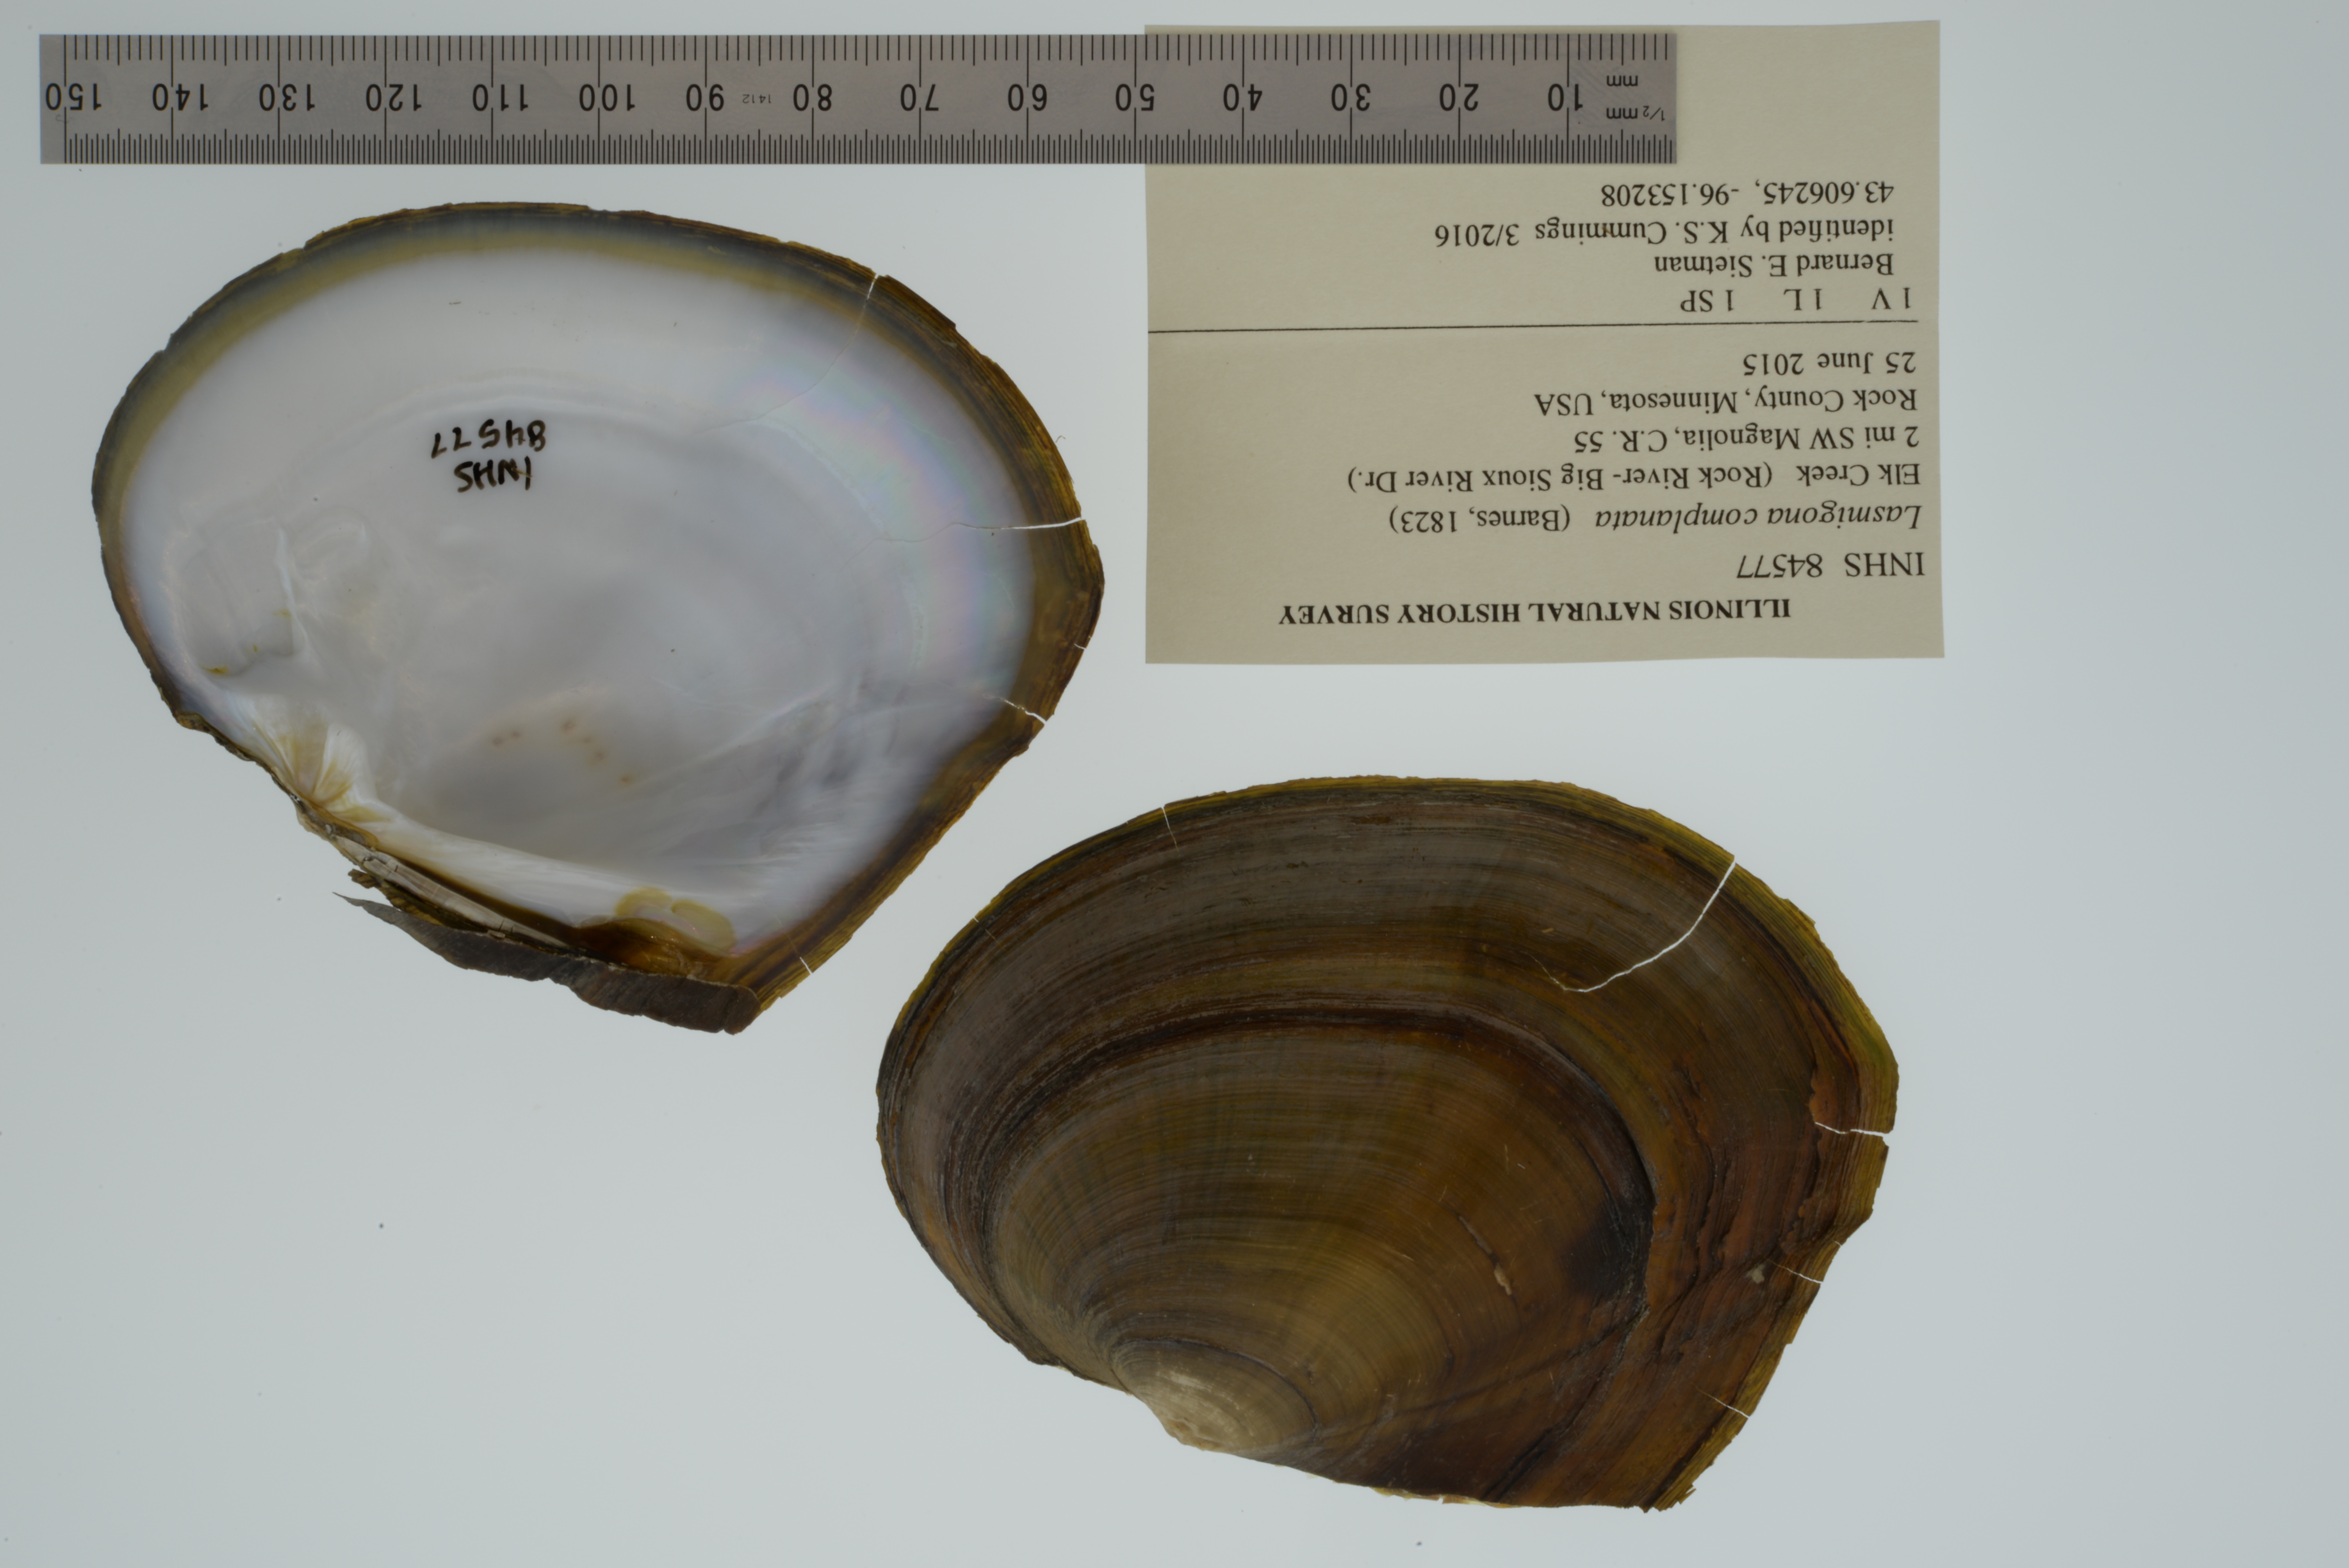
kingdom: Animalia
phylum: Mollusca
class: Bivalvia
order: Unionida
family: Unionidae
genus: Lasmigona
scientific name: Lasmigona complanata
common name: White heelsplitter
